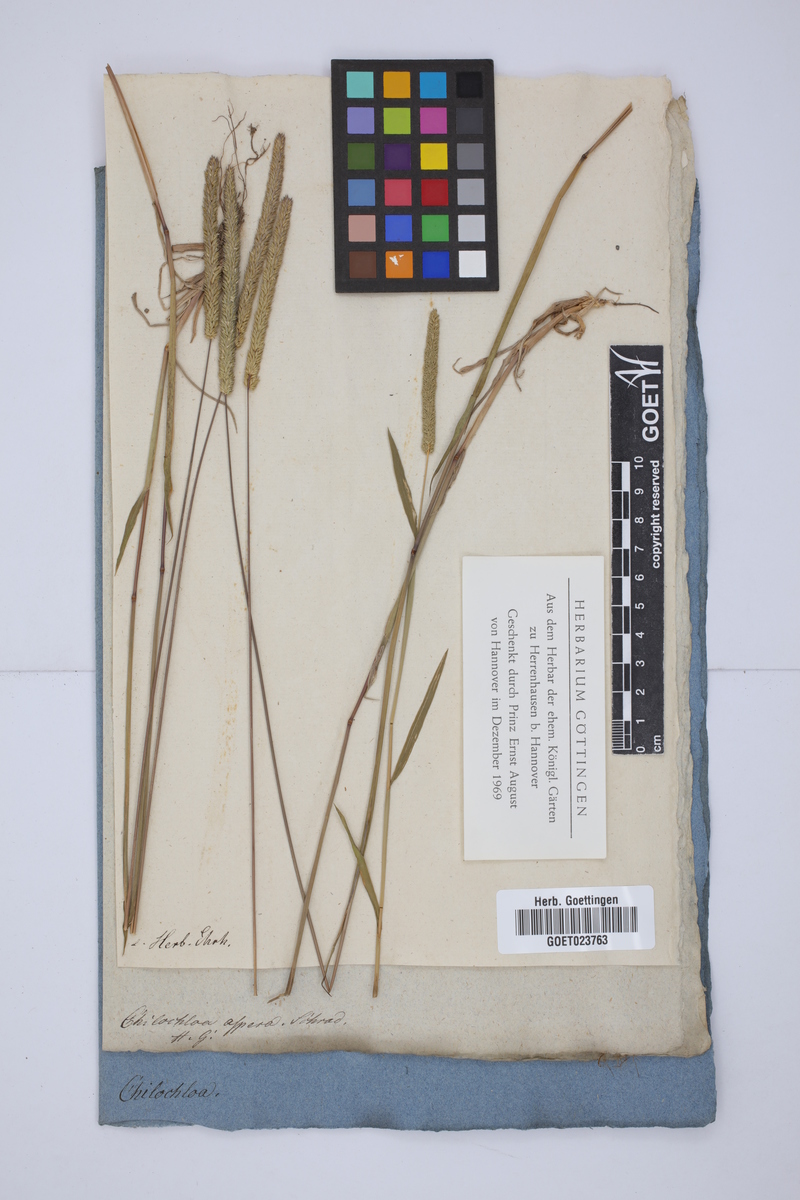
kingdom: Plantae
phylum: Tracheophyta
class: Liliopsida
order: Poales
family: Poaceae
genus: Phleum
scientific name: Phleum paniculatum
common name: British timothy
